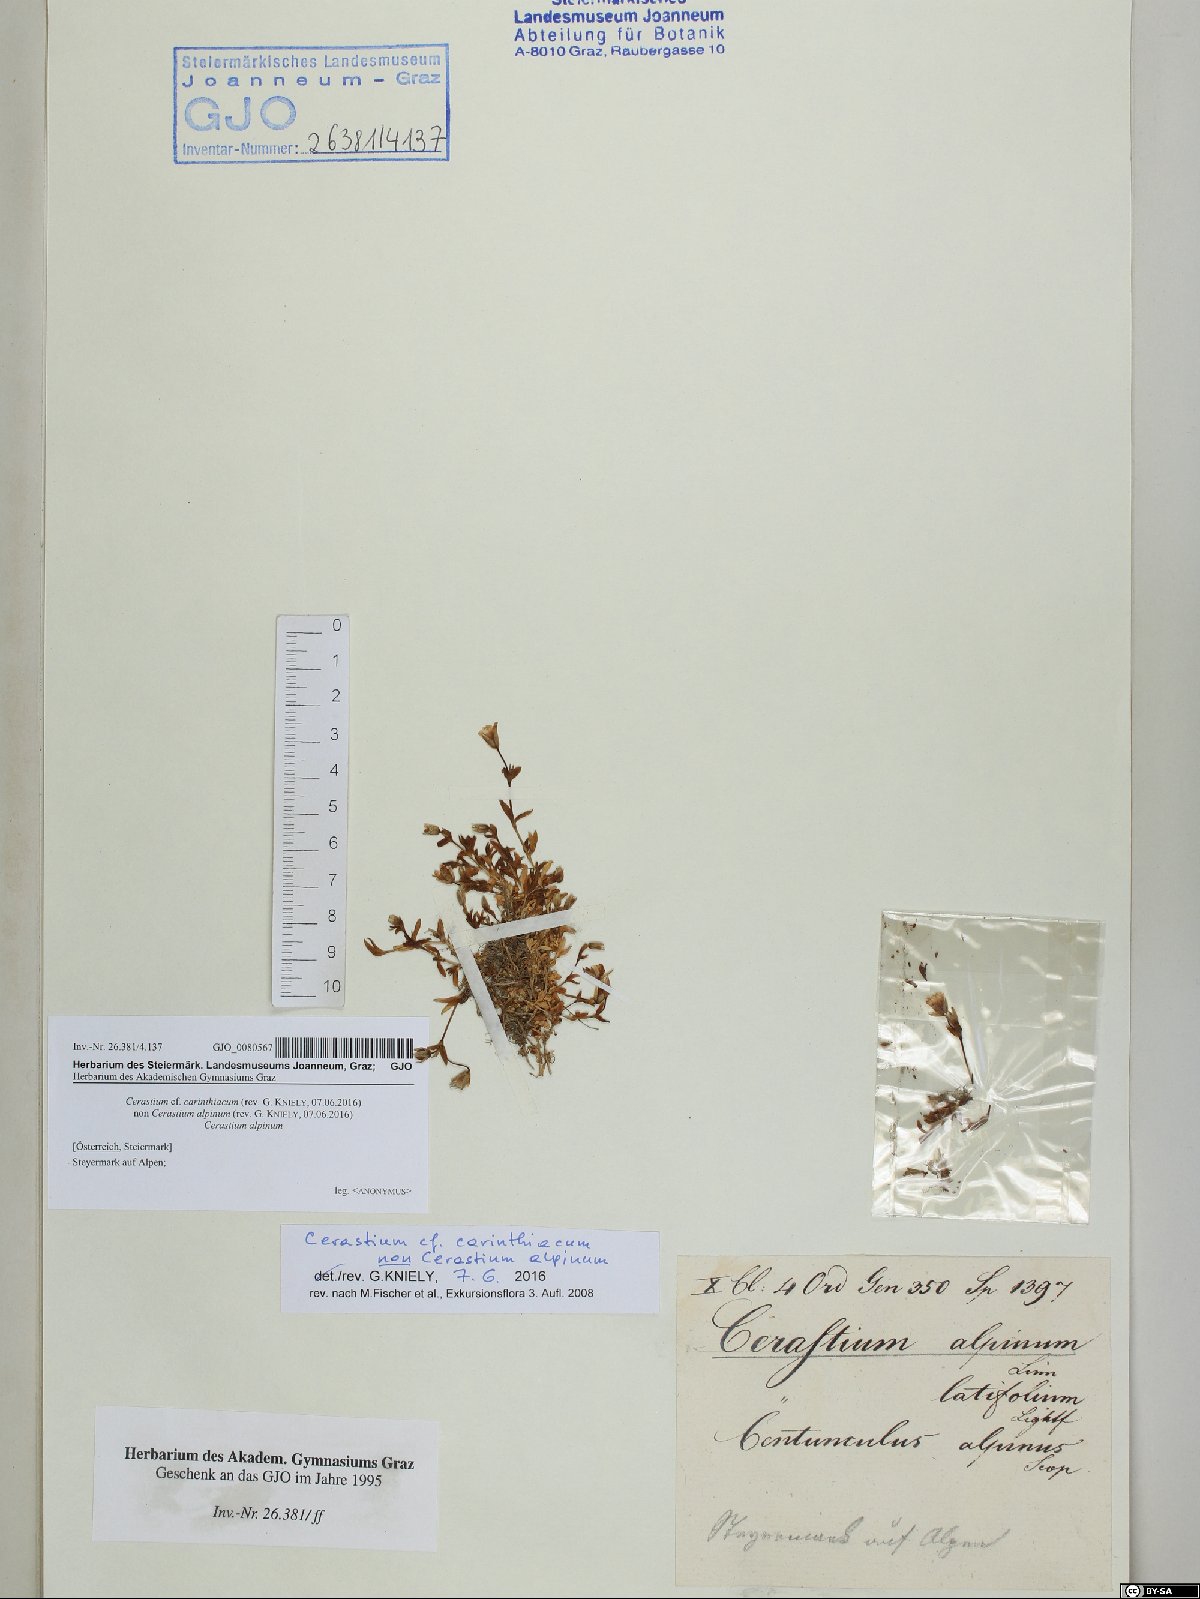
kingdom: Plantae
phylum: Tracheophyta
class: Magnoliopsida
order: Caryophyllales
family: Caryophyllaceae
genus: Cerastium
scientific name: Cerastium carinthiacum
